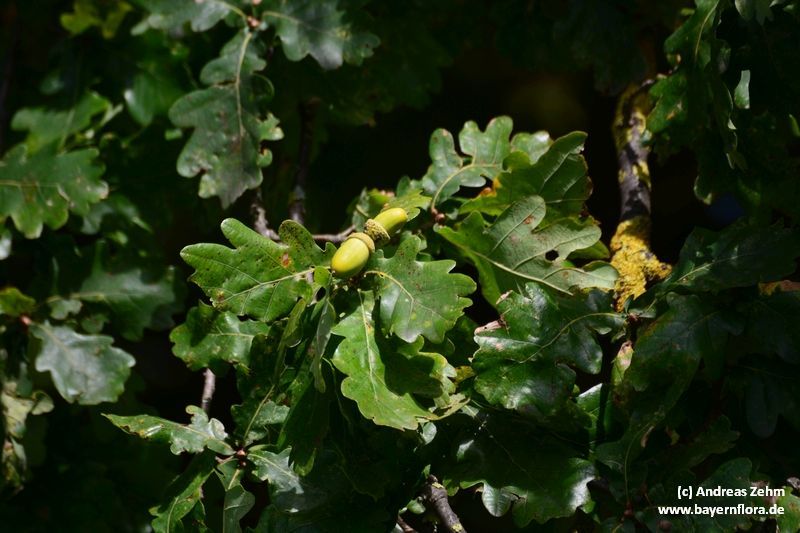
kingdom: Plantae
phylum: Tracheophyta
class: Magnoliopsida
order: Fagales
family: Fagaceae
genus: Quercus
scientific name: Quercus robur
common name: Pedunculate oak
